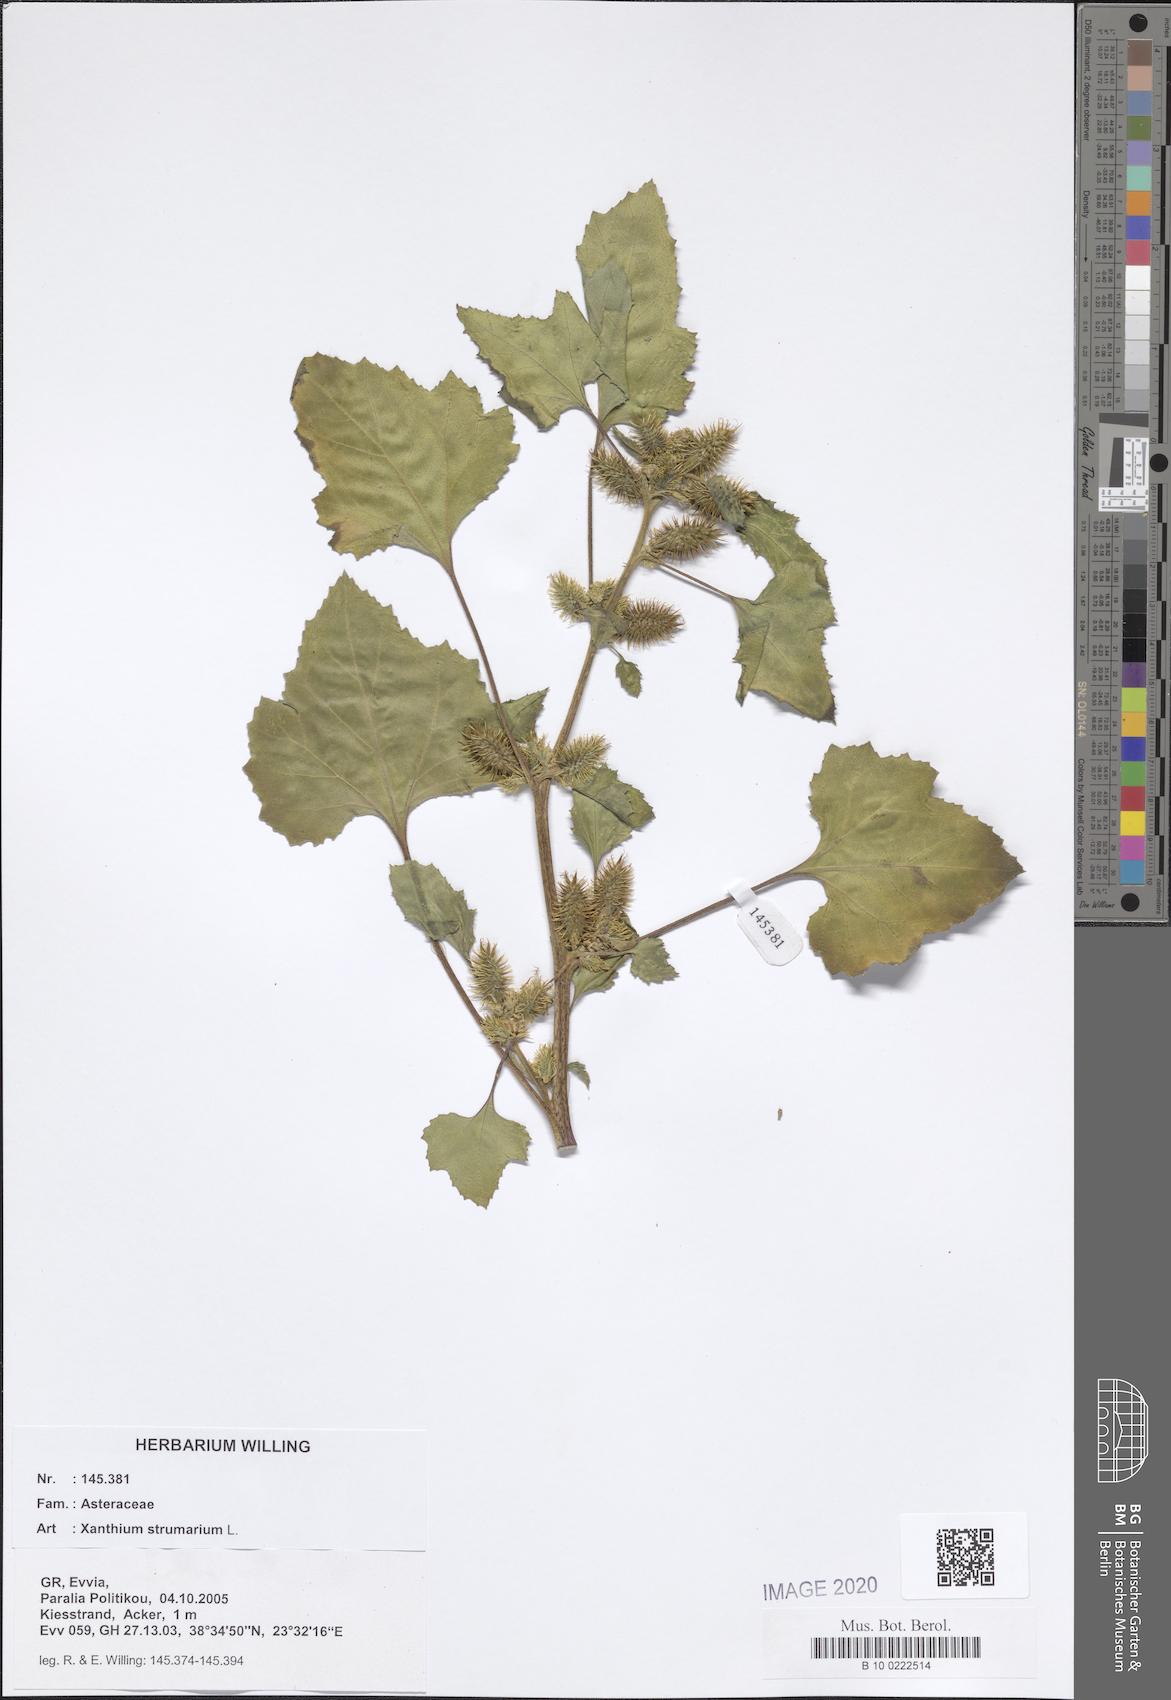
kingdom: Plantae
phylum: Tracheophyta
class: Magnoliopsida
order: Asterales
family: Asteraceae
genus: Xanthium
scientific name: Xanthium strumarium
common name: Rough cocklebur
